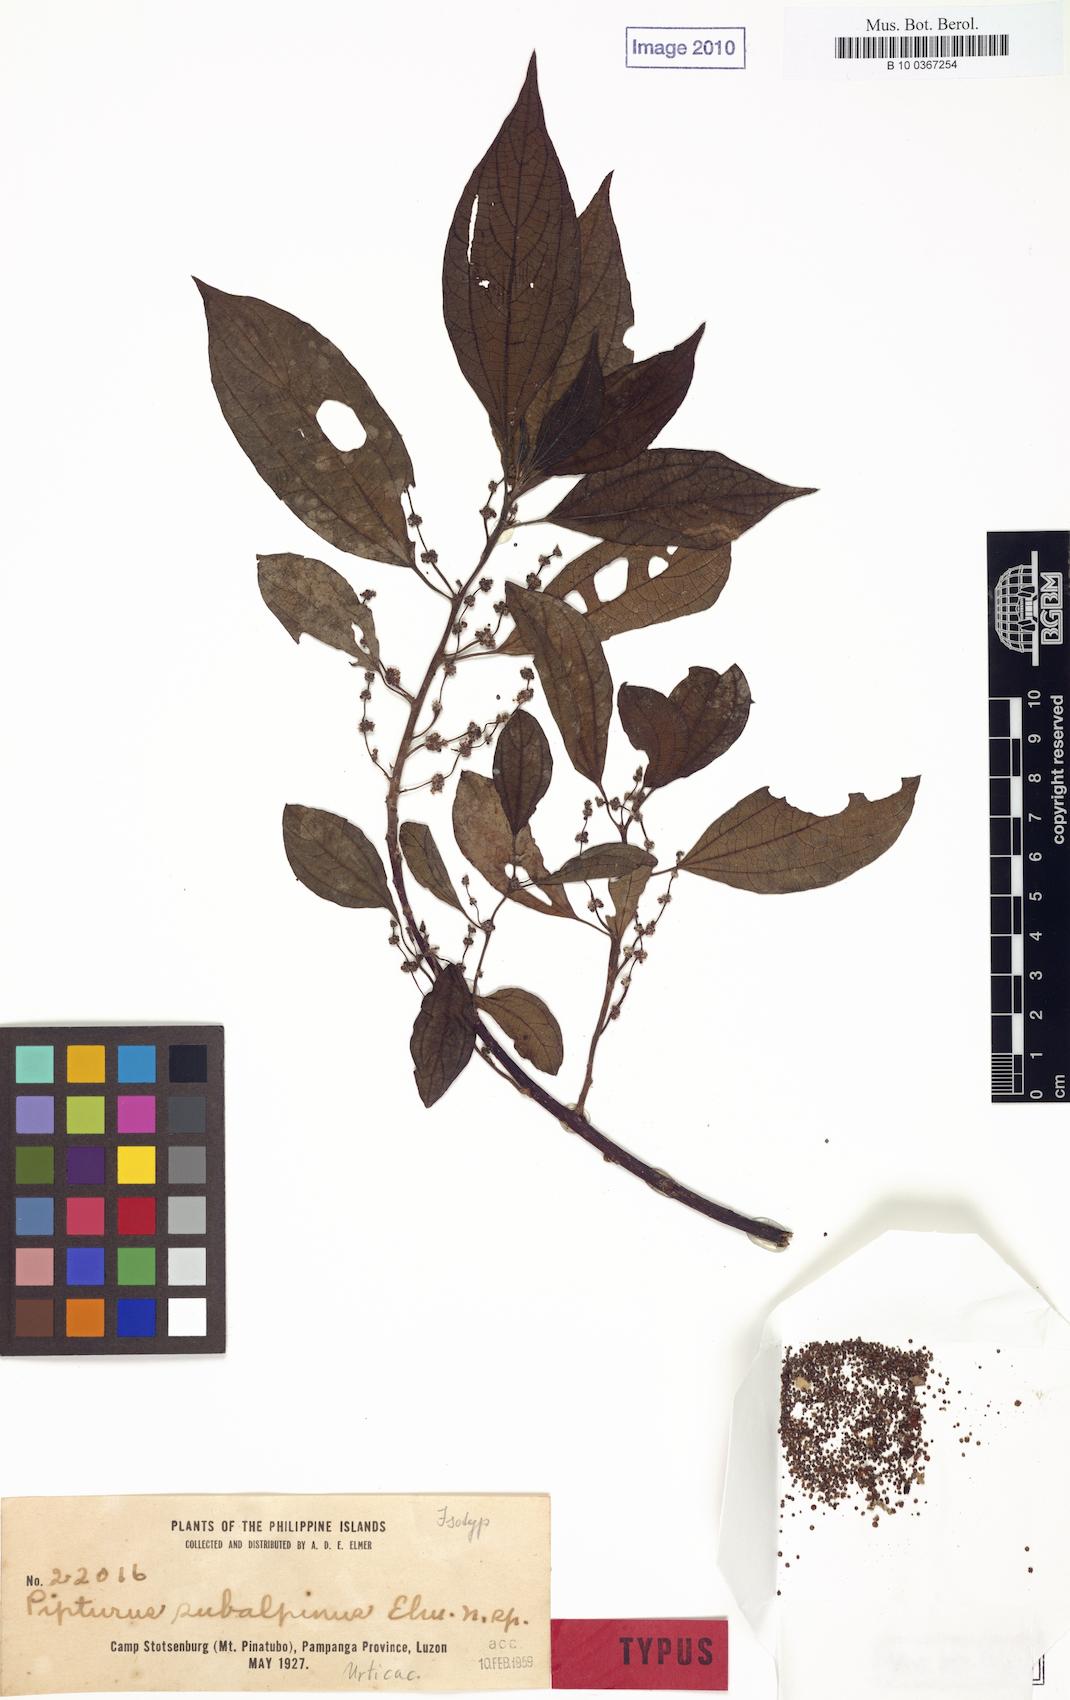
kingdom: Plantae
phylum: Tracheophyta
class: Magnoliopsida
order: Rosales
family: Urticaceae
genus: Nothocnide
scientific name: Nothocnide repanda
